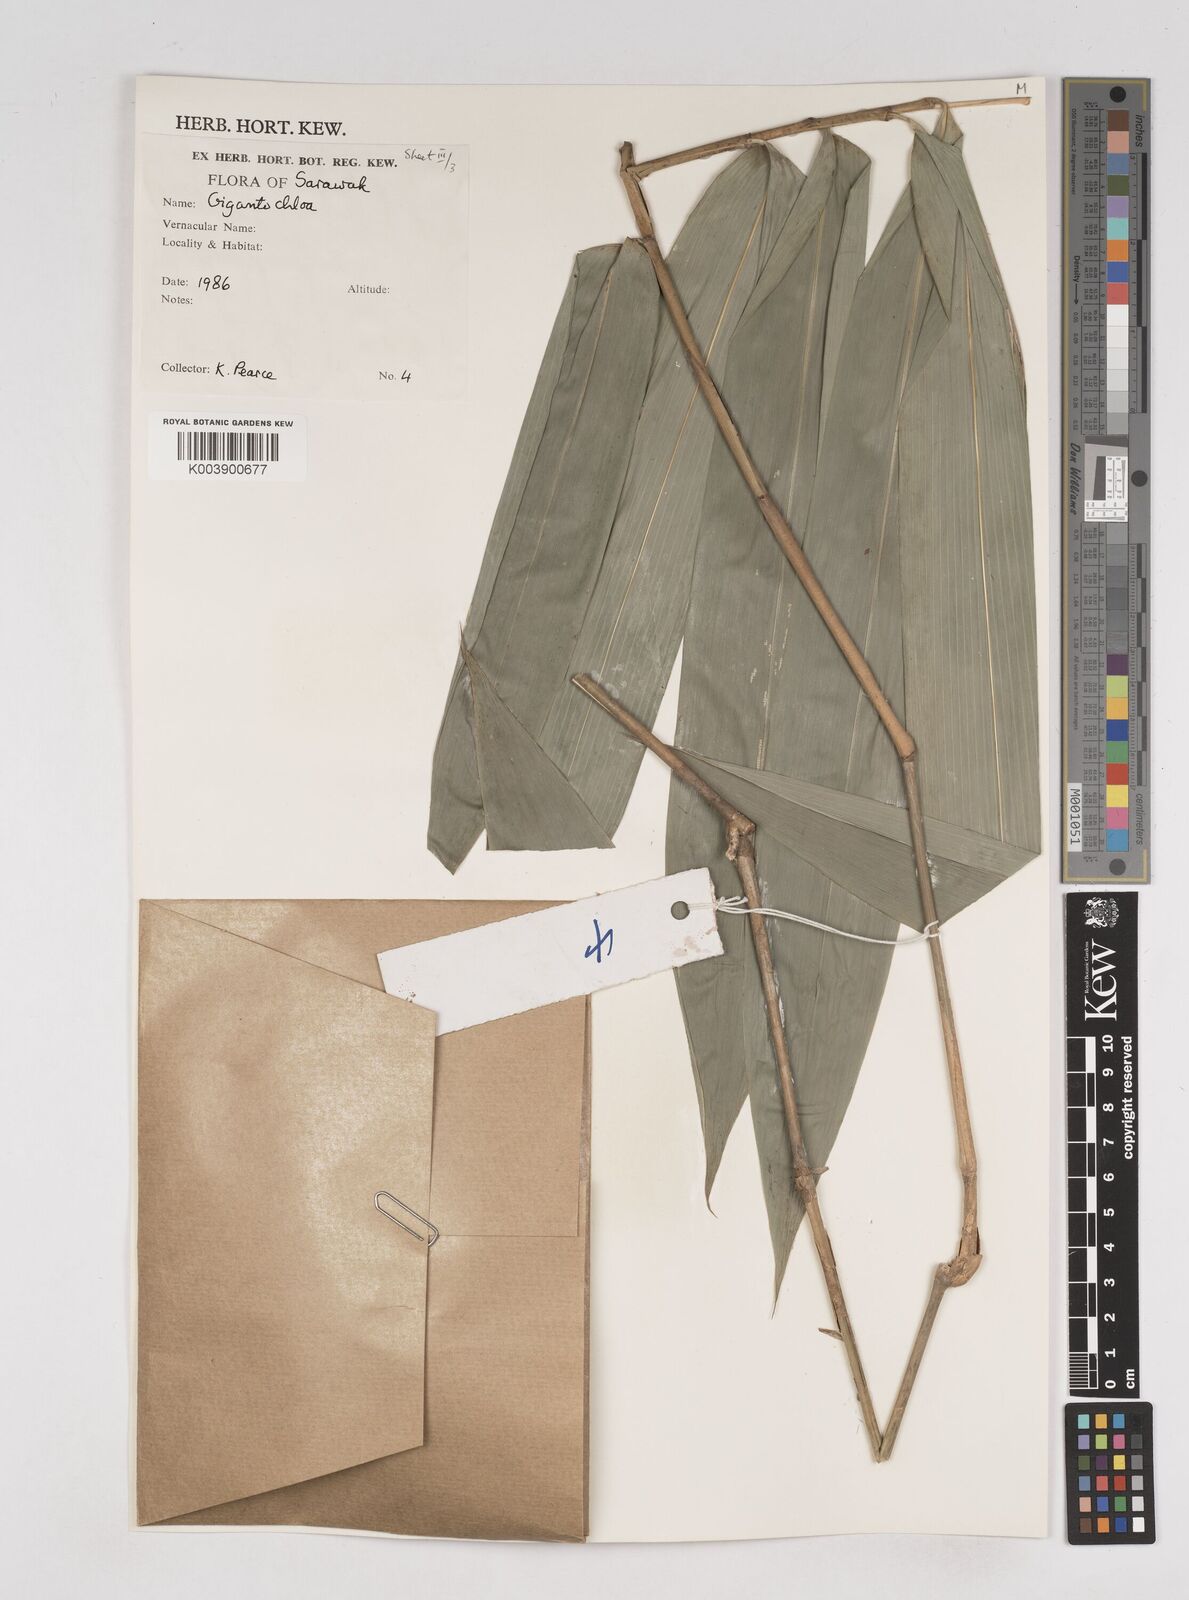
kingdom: Plantae
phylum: Tracheophyta
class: Liliopsida
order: Poales
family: Poaceae
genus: Gigantochloa
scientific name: Gigantochloa
